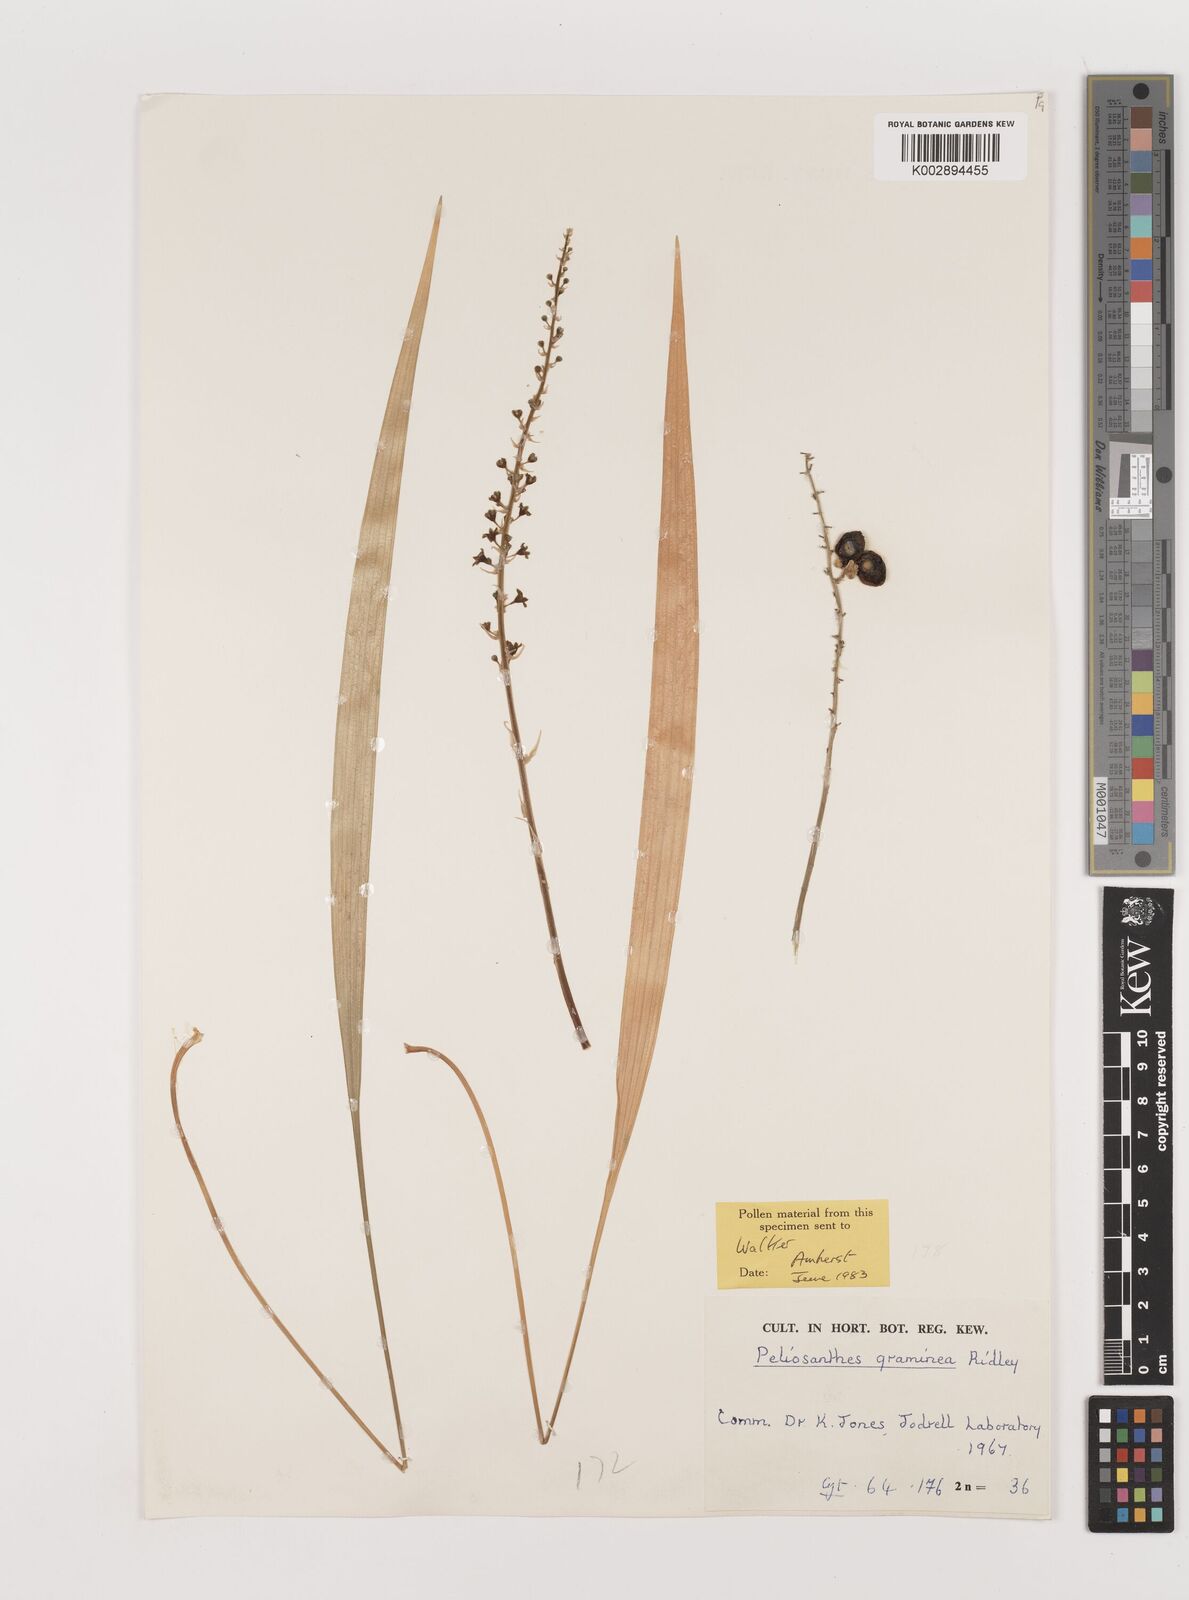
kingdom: Plantae
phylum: Tracheophyta
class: Liliopsida
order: Asparagales
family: Asparagaceae
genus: Peliosanthes
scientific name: Peliosanthes teta
